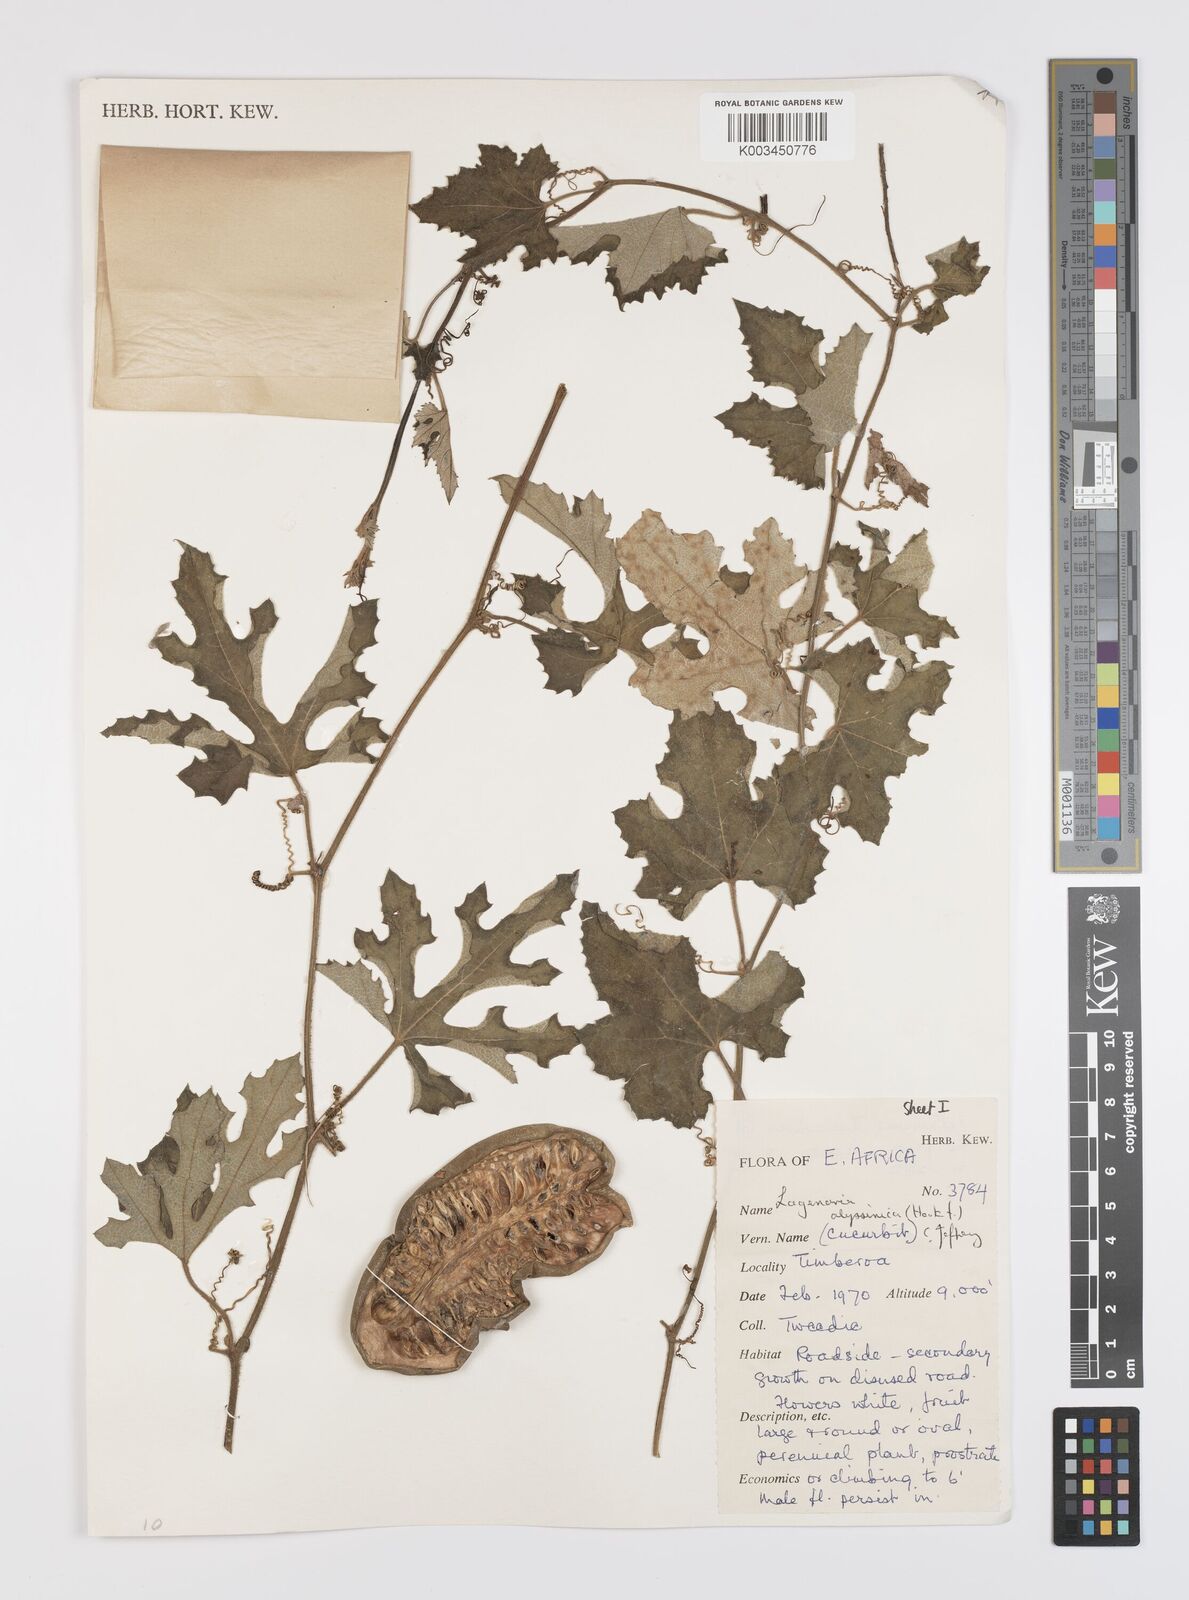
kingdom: Plantae
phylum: Tracheophyta
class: Magnoliopsida
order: Cucurbitales
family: Cucurbitaceae
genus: Lagenaria
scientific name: Lagenaria abyssinica
